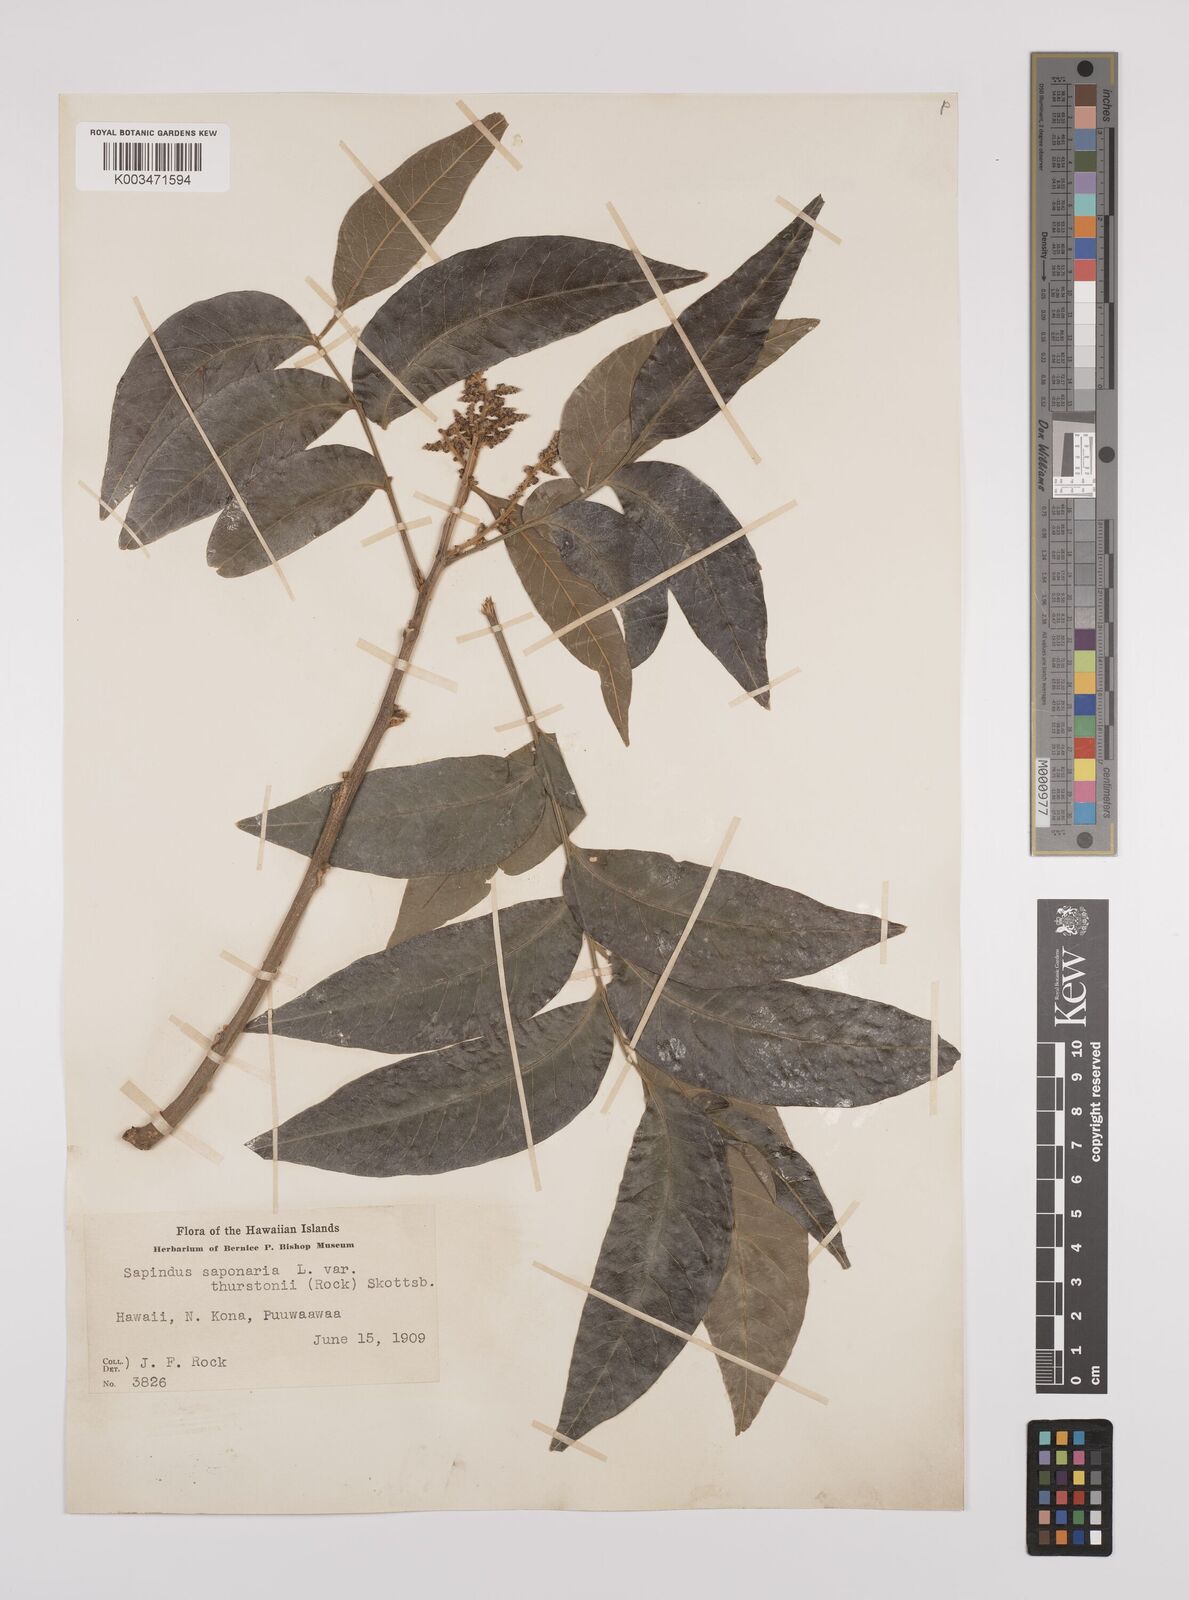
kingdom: Plantae
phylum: Tracheophyta
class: Magnoliopsida
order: Sapindales
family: Sapindaceae
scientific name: Sapindaceae
